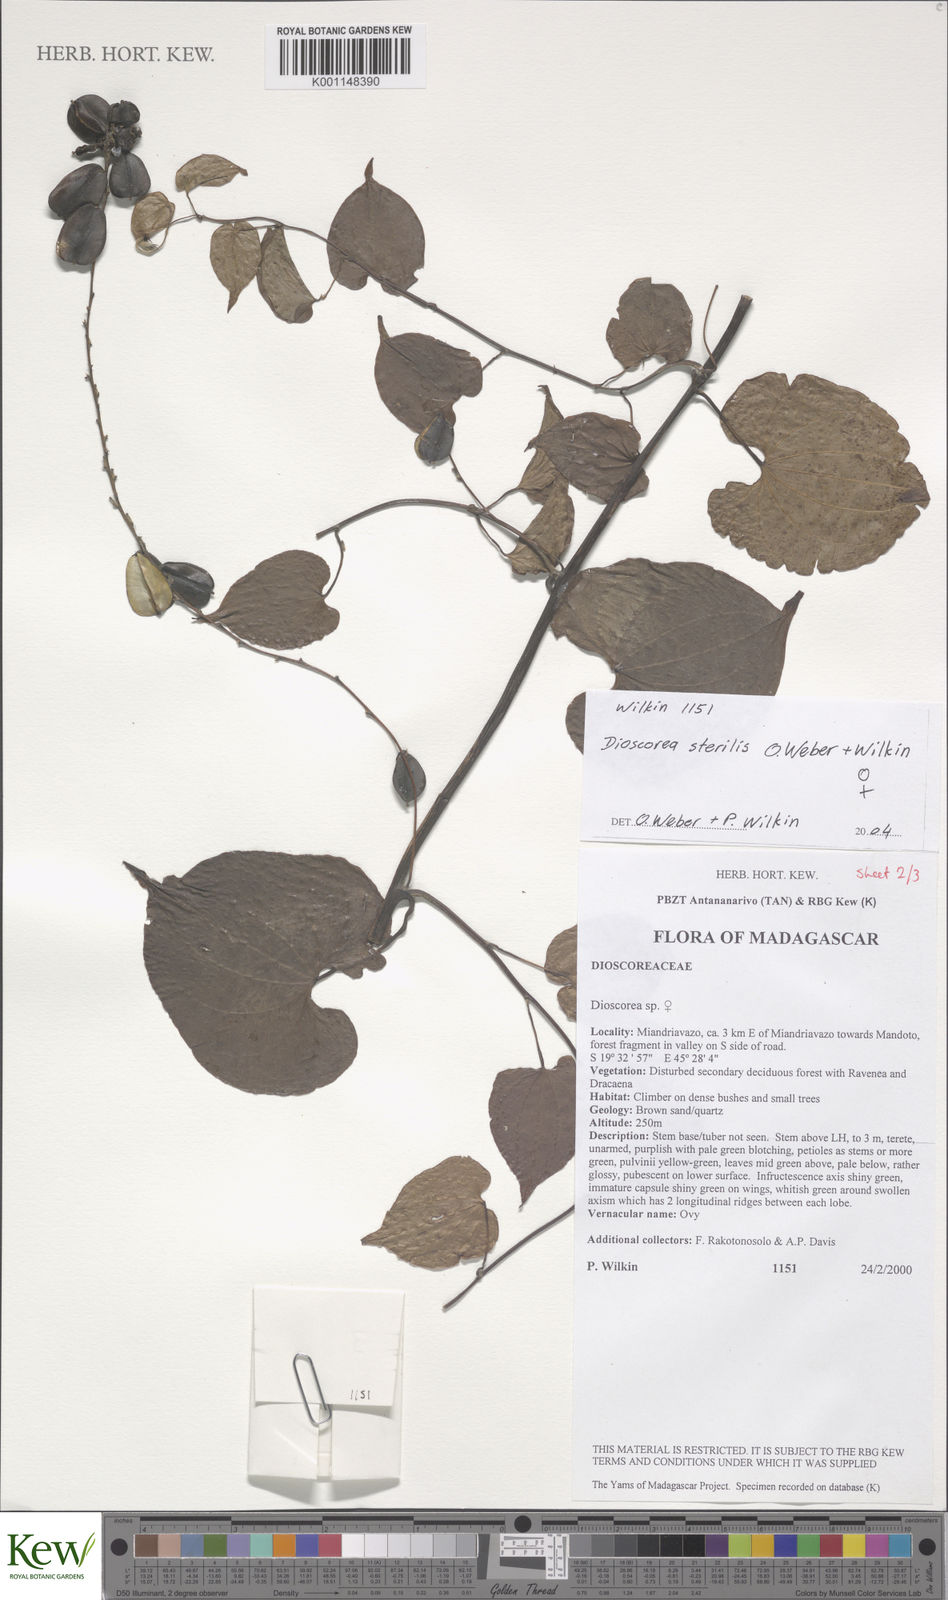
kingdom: Plantae
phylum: Tracheophyta
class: Liliopsida
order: Dioscoreales
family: Dioscoreaceae
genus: Dioscorea
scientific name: Dioscorea sterilis
